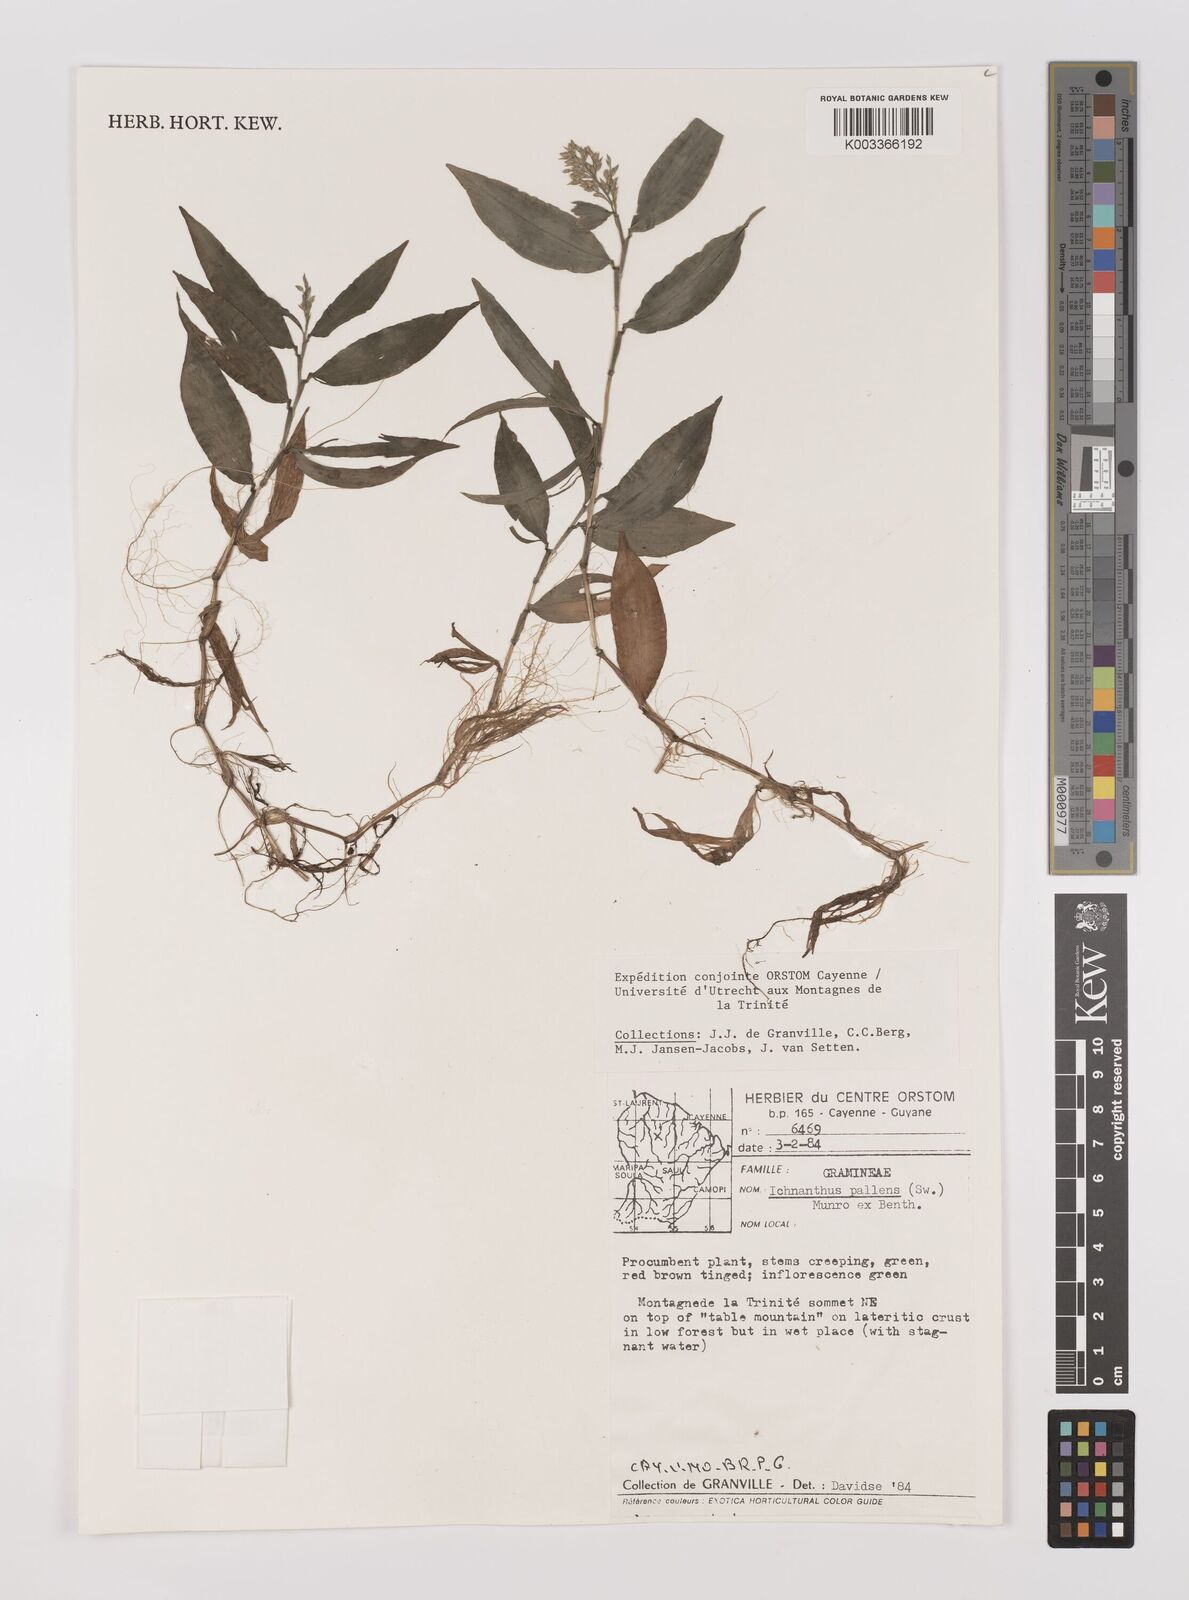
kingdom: Plantae
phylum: Tracheophyta
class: Liliopsida
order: Poales
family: Poaceae
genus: Ichnanthus
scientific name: Ichnanthus pallens
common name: Water grass
